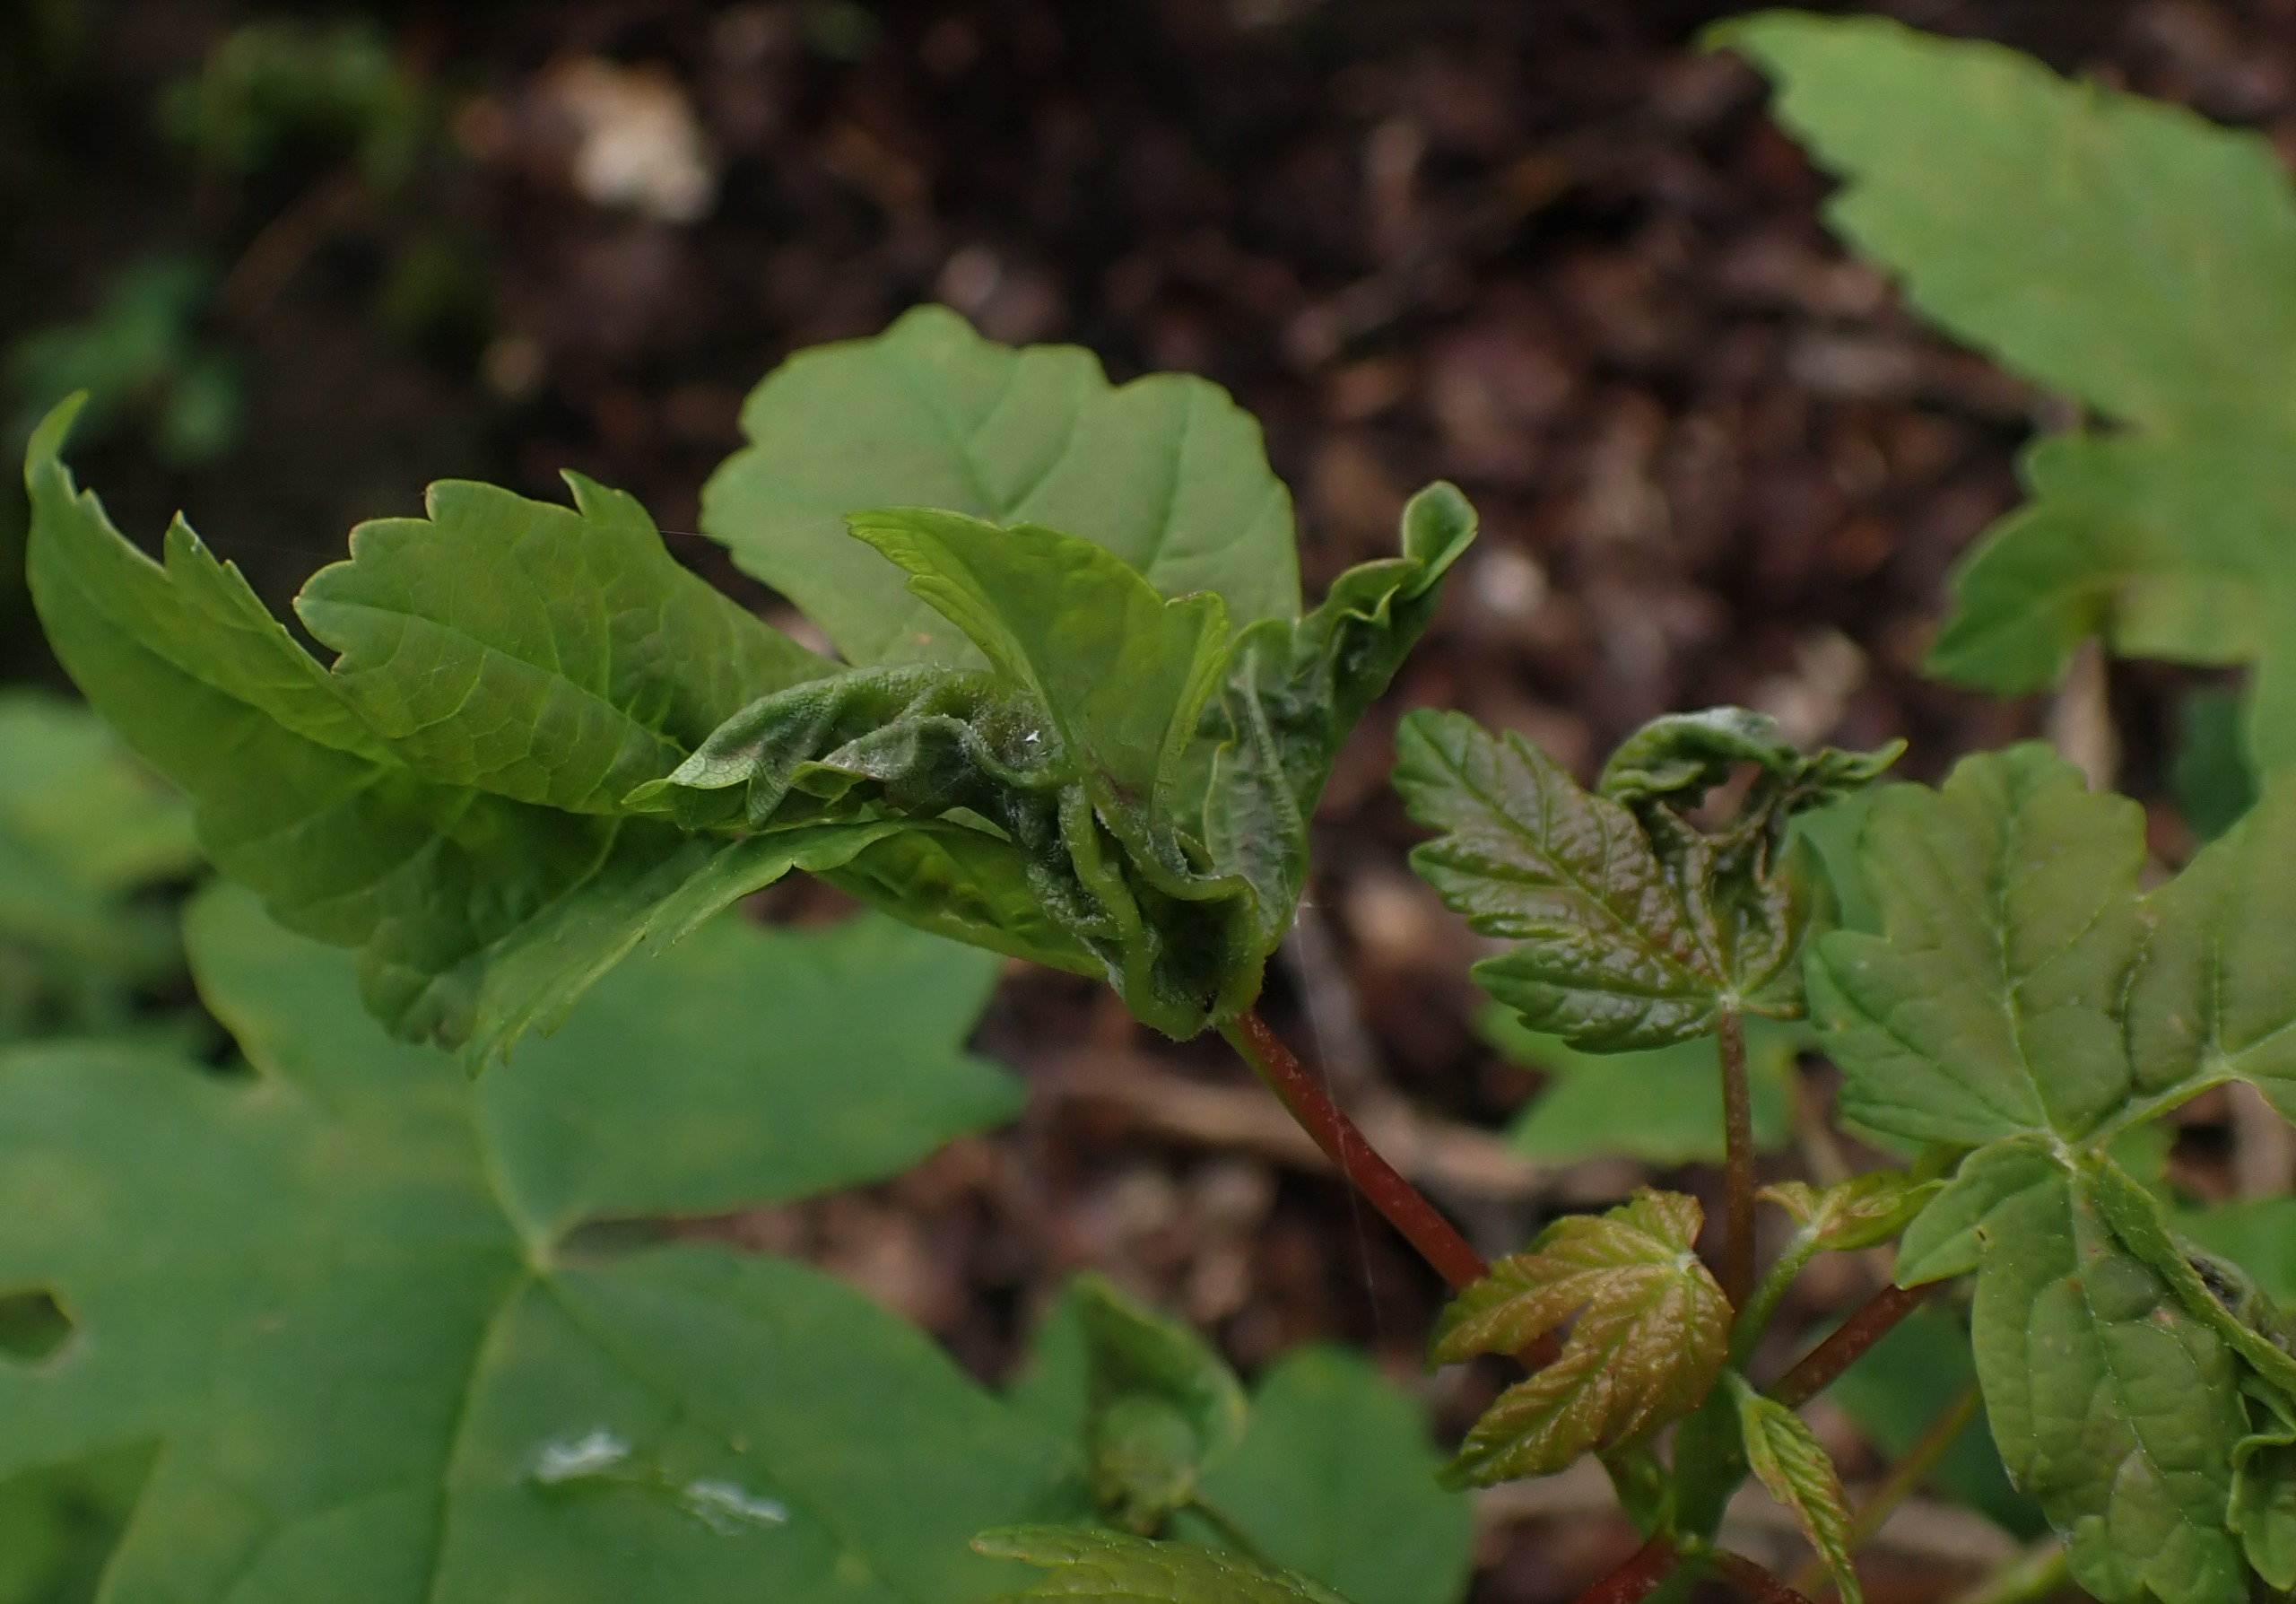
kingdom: Animalia
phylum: Arthropoda
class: Insecta
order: Diptera
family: Cecidomyiidae
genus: Dasineura
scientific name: Dasineura irregularis
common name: Ahornkrusegalmyg
